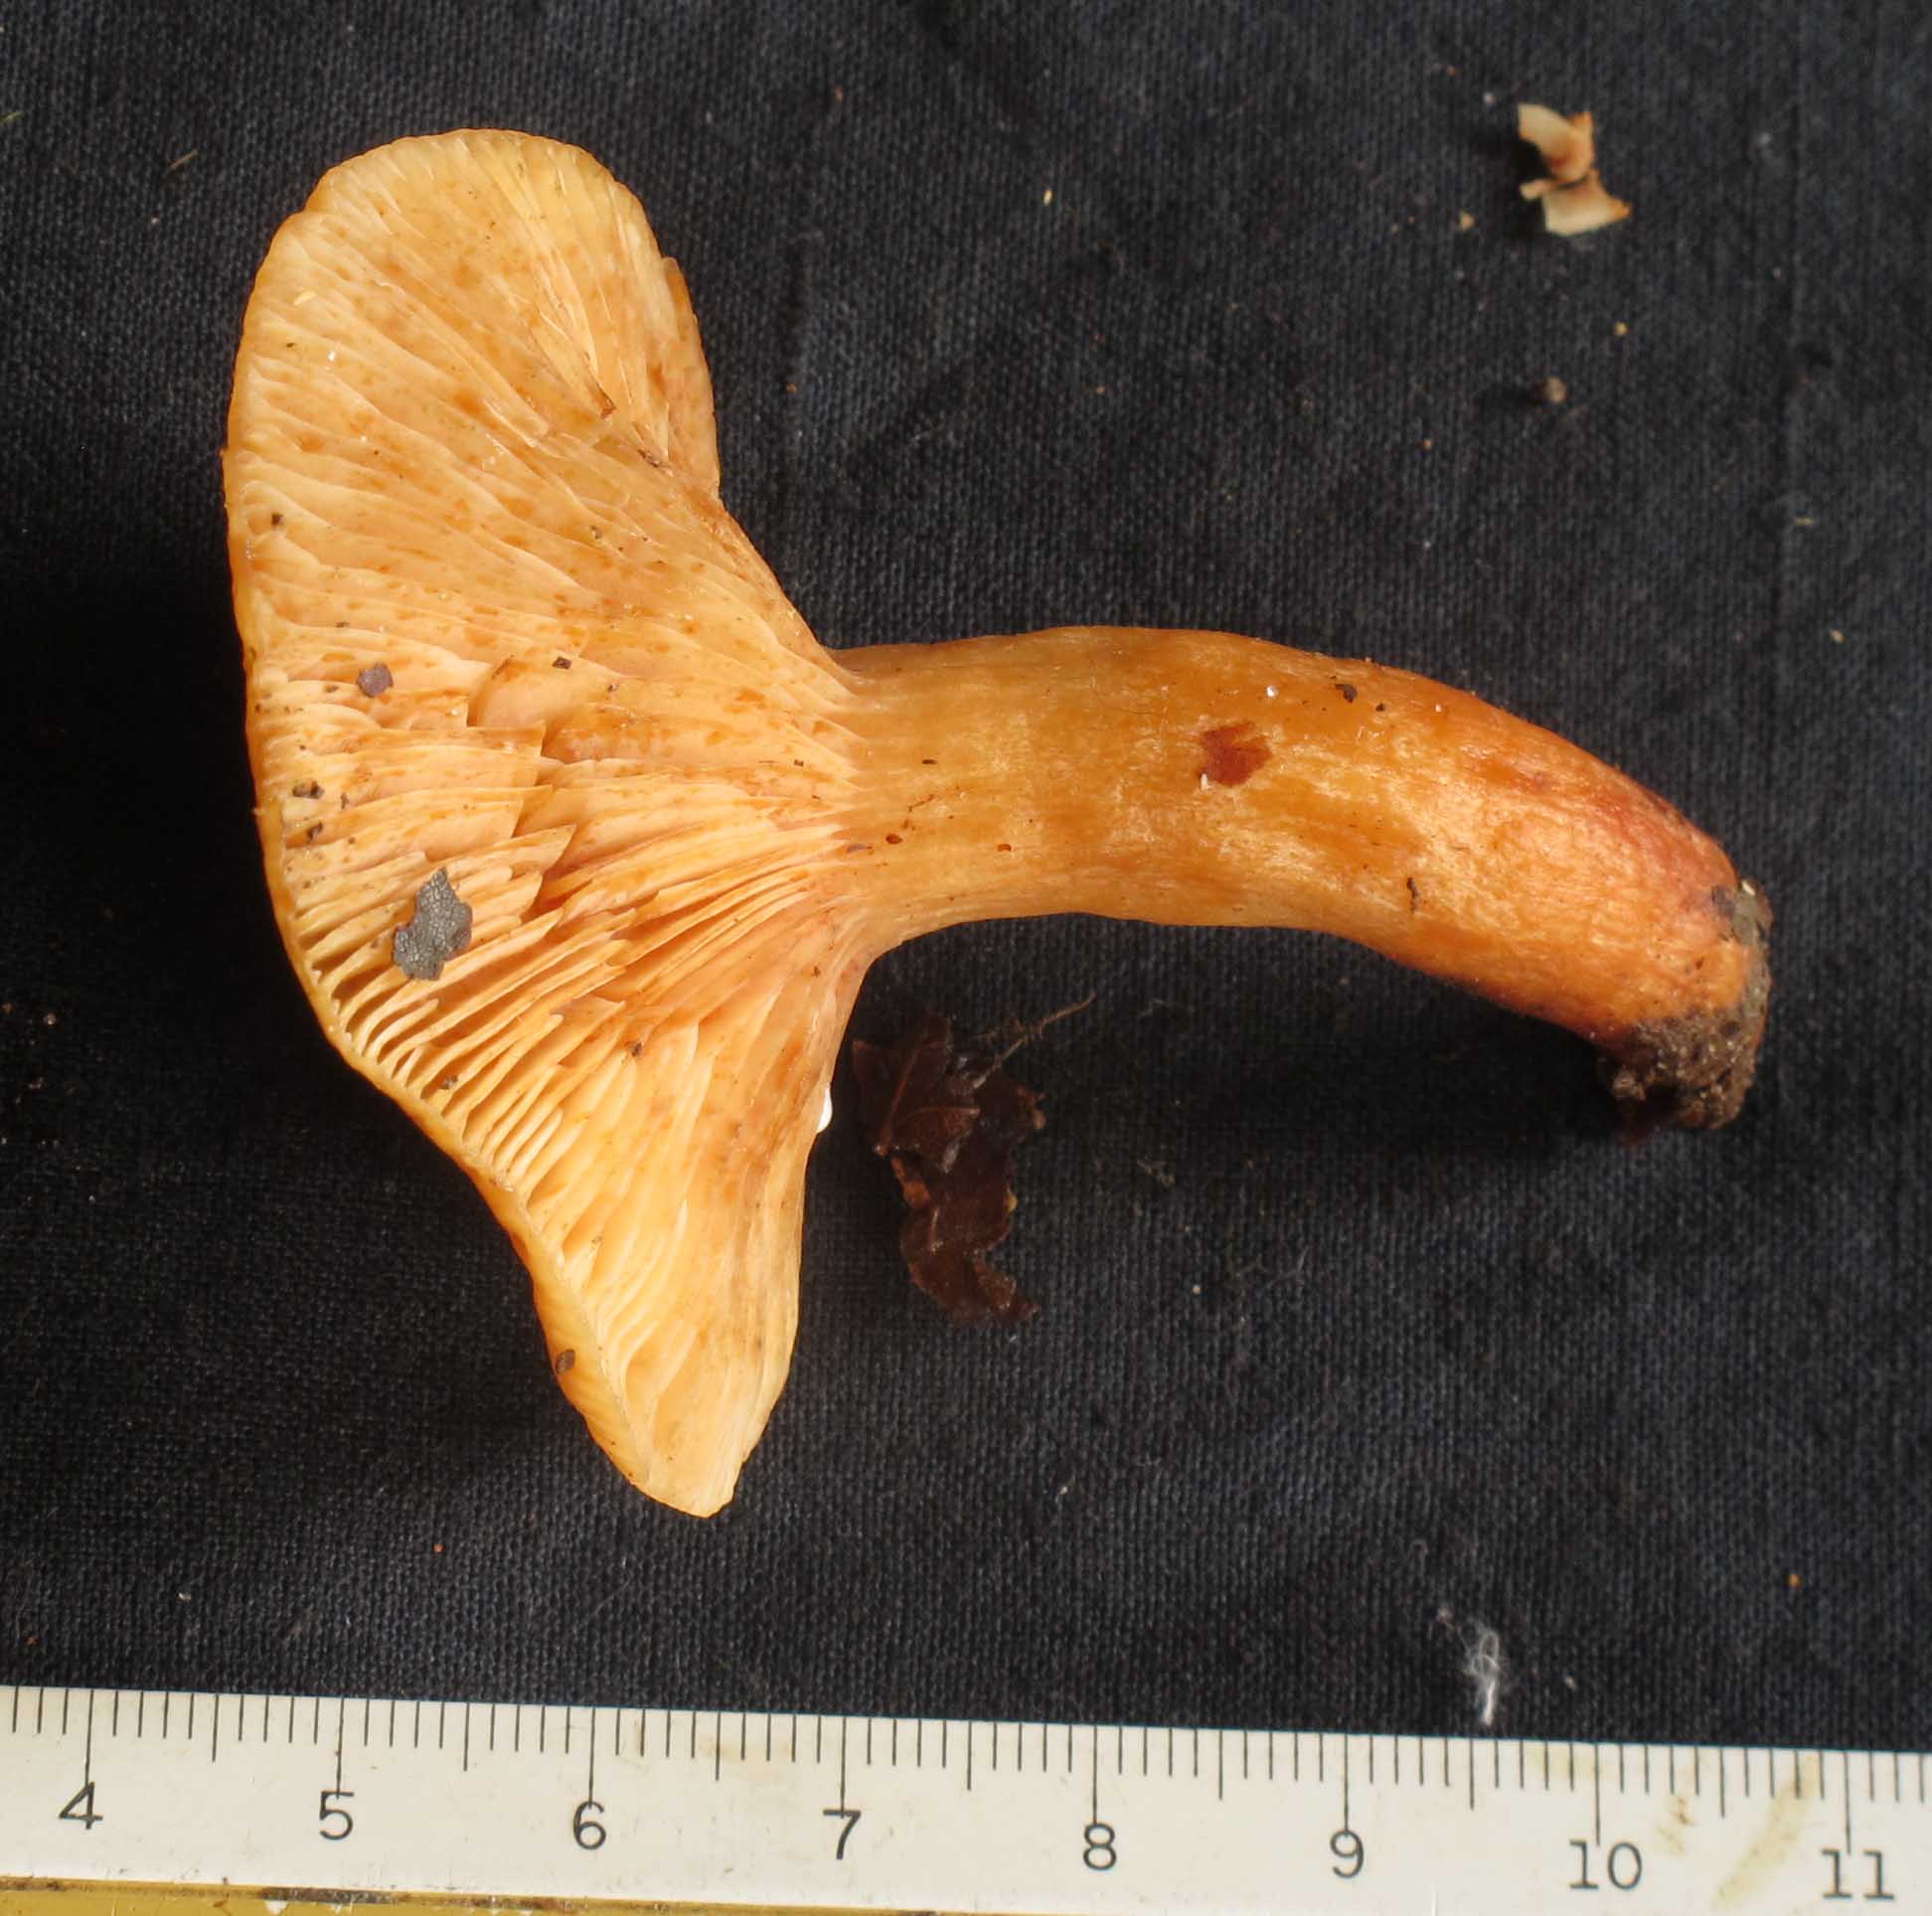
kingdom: Fungi
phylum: Basidiomycota
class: Agaricomycetes
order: Russulales
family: Russulaceae
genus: Lactarius
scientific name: Lactarius fulvissimus
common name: ræve-mælkehat
